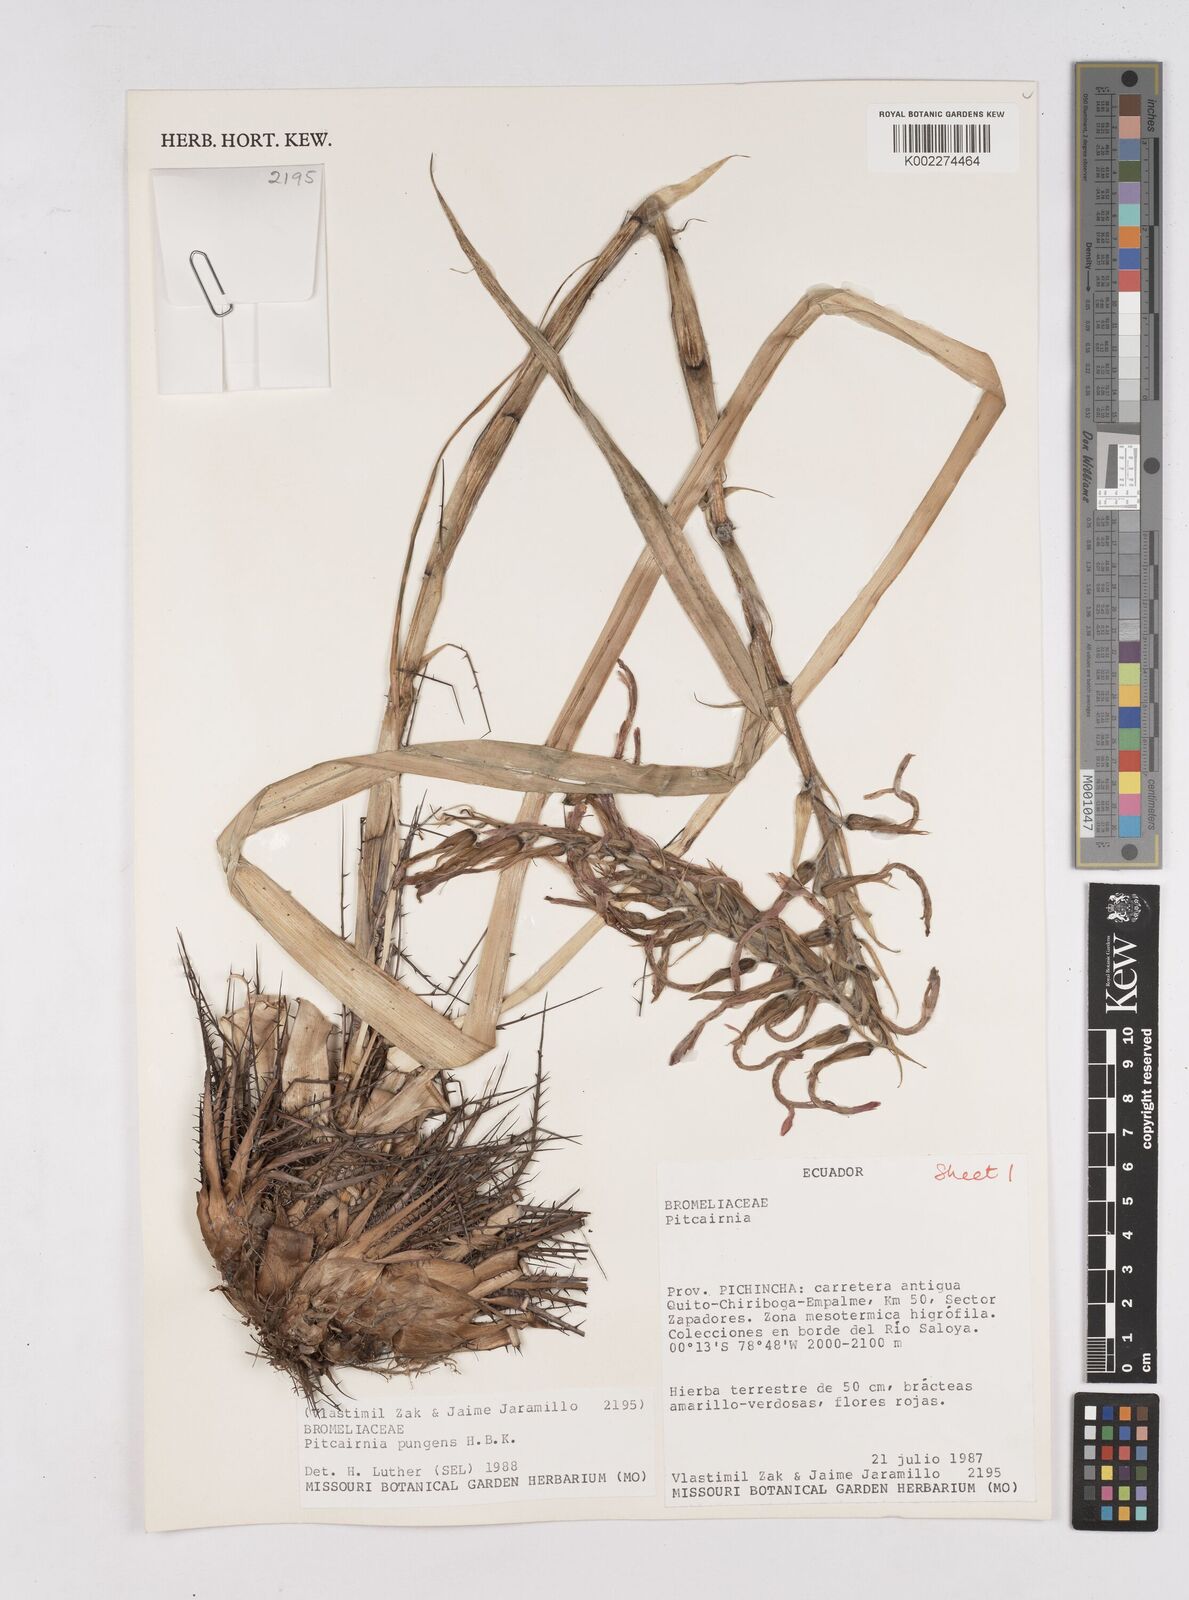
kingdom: Plantae
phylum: Tracheophyta
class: Liliopsida
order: Poales
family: Bromeliaceae
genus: Pitcairnia
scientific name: Pitcairnia pungens
